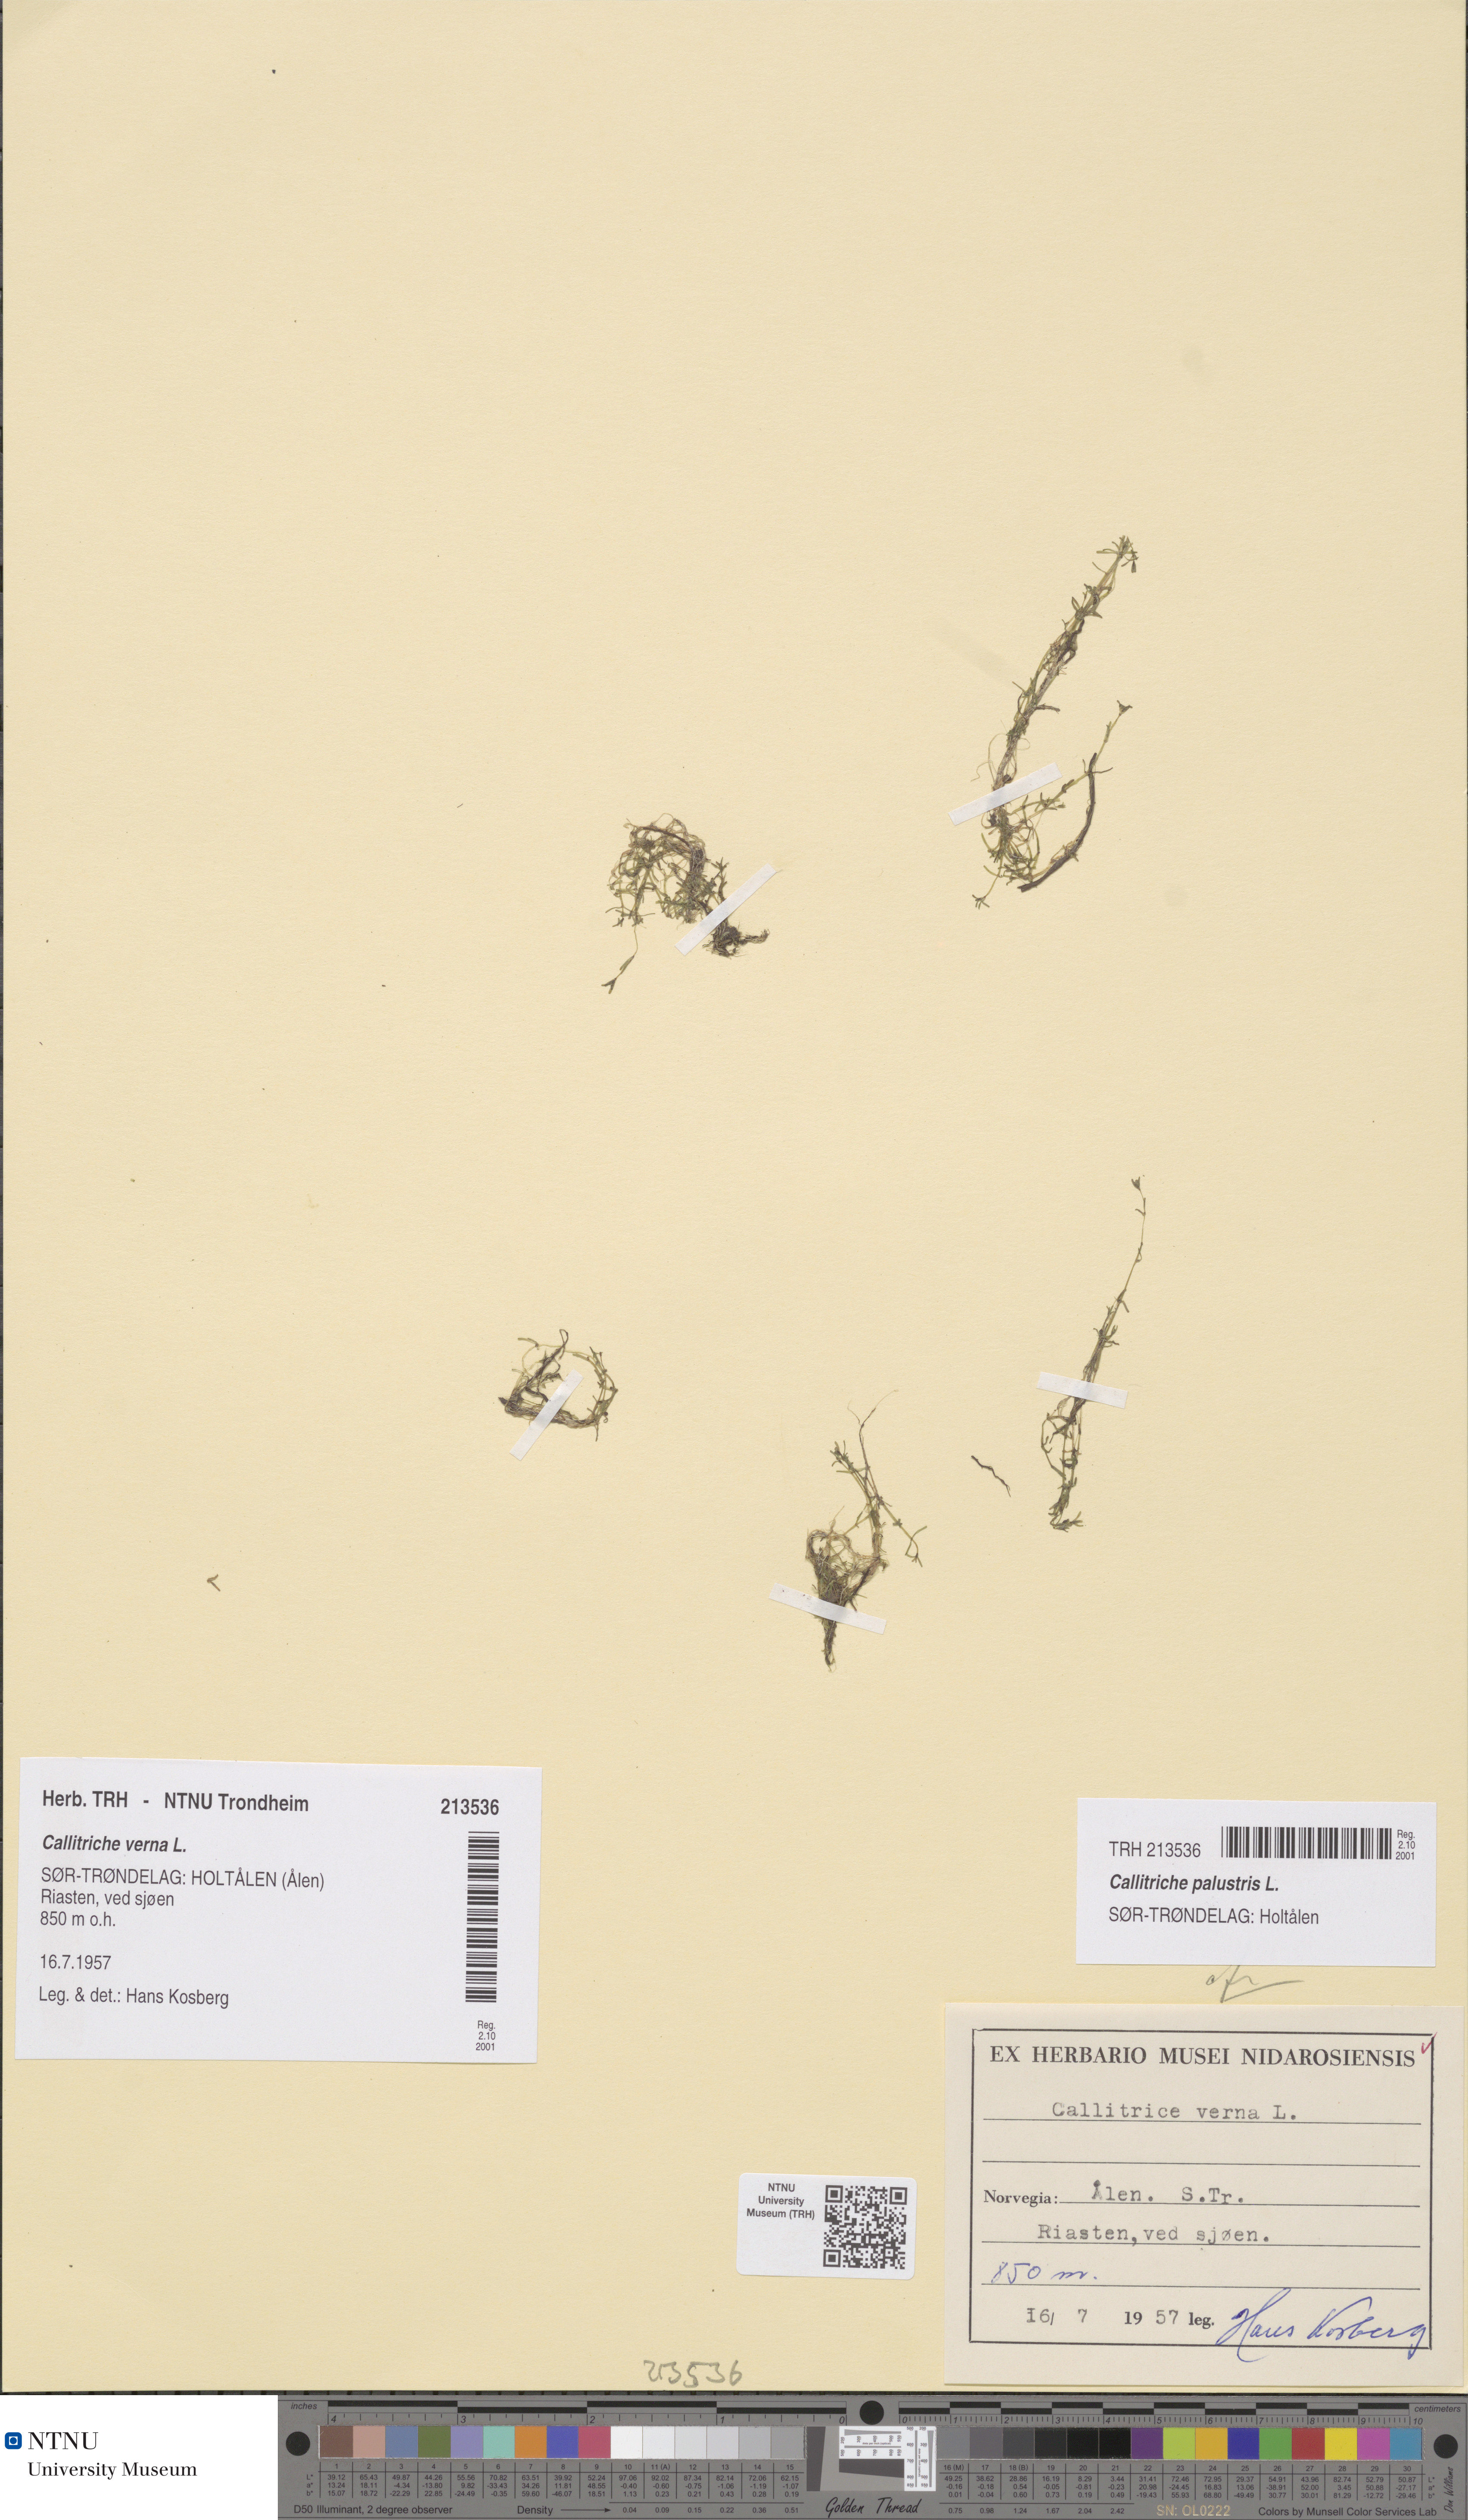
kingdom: Plantae
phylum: Tracheophyta
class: Magnoliopsida
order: Lamiales
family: Plantaginaceae
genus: Callitriche
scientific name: Callitriche palustris
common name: Spring water-starwort
